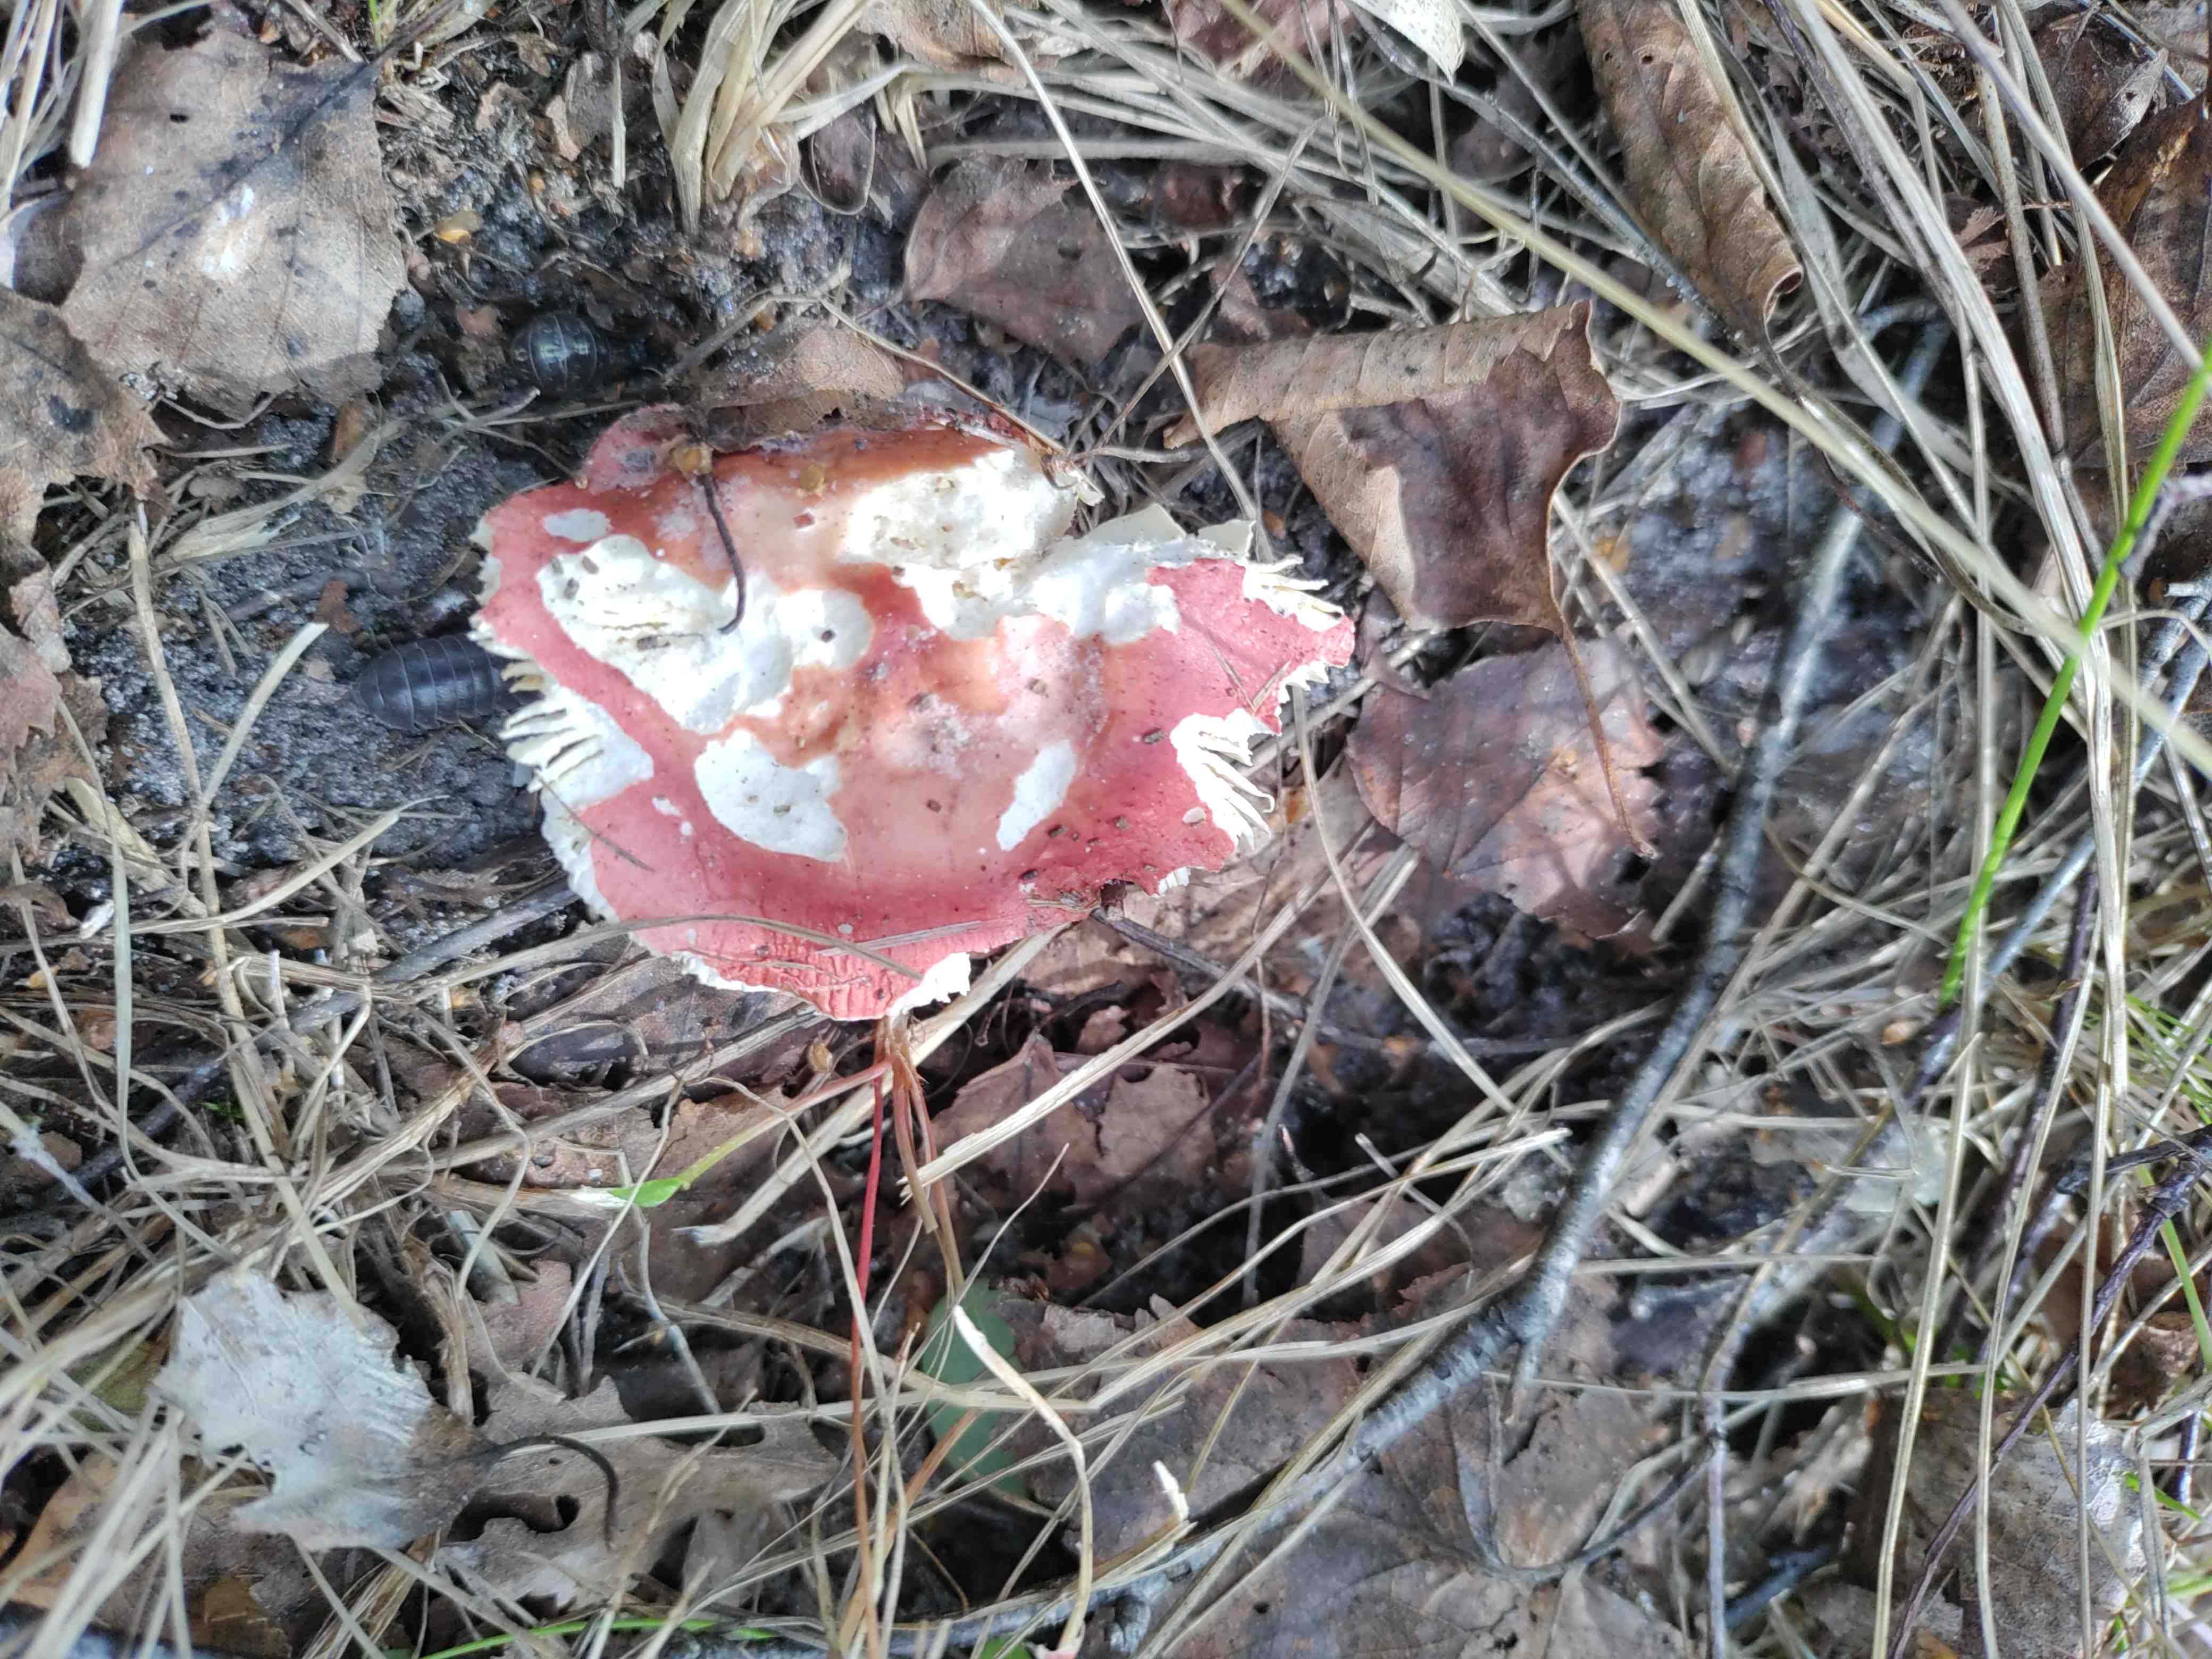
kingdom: Fungi
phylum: Basidiomycota
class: Agaricomycetes
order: Russulales
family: Russulaceae
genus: Russula
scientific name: Russula
